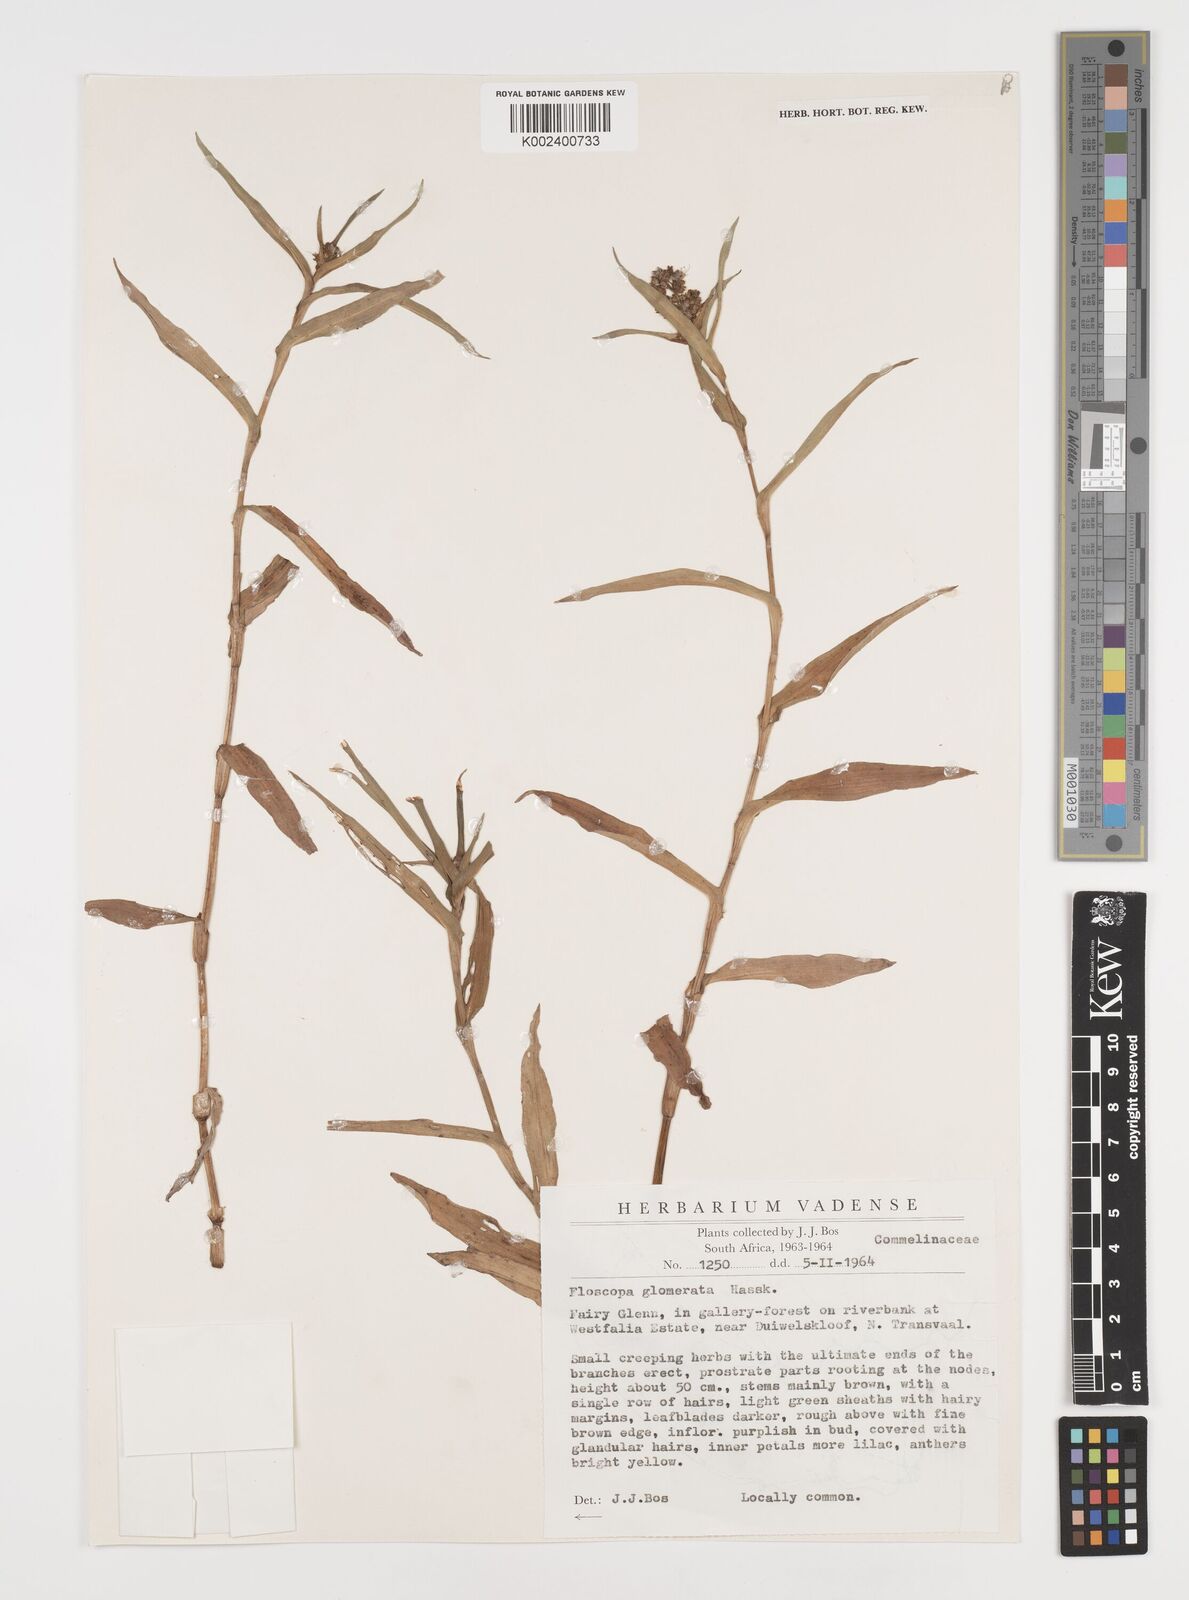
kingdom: Plantae
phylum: Tracheophyta
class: Liliopsida
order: Commelinales
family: Commelinaceae
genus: Floscopa
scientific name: Floscopa glomerata
